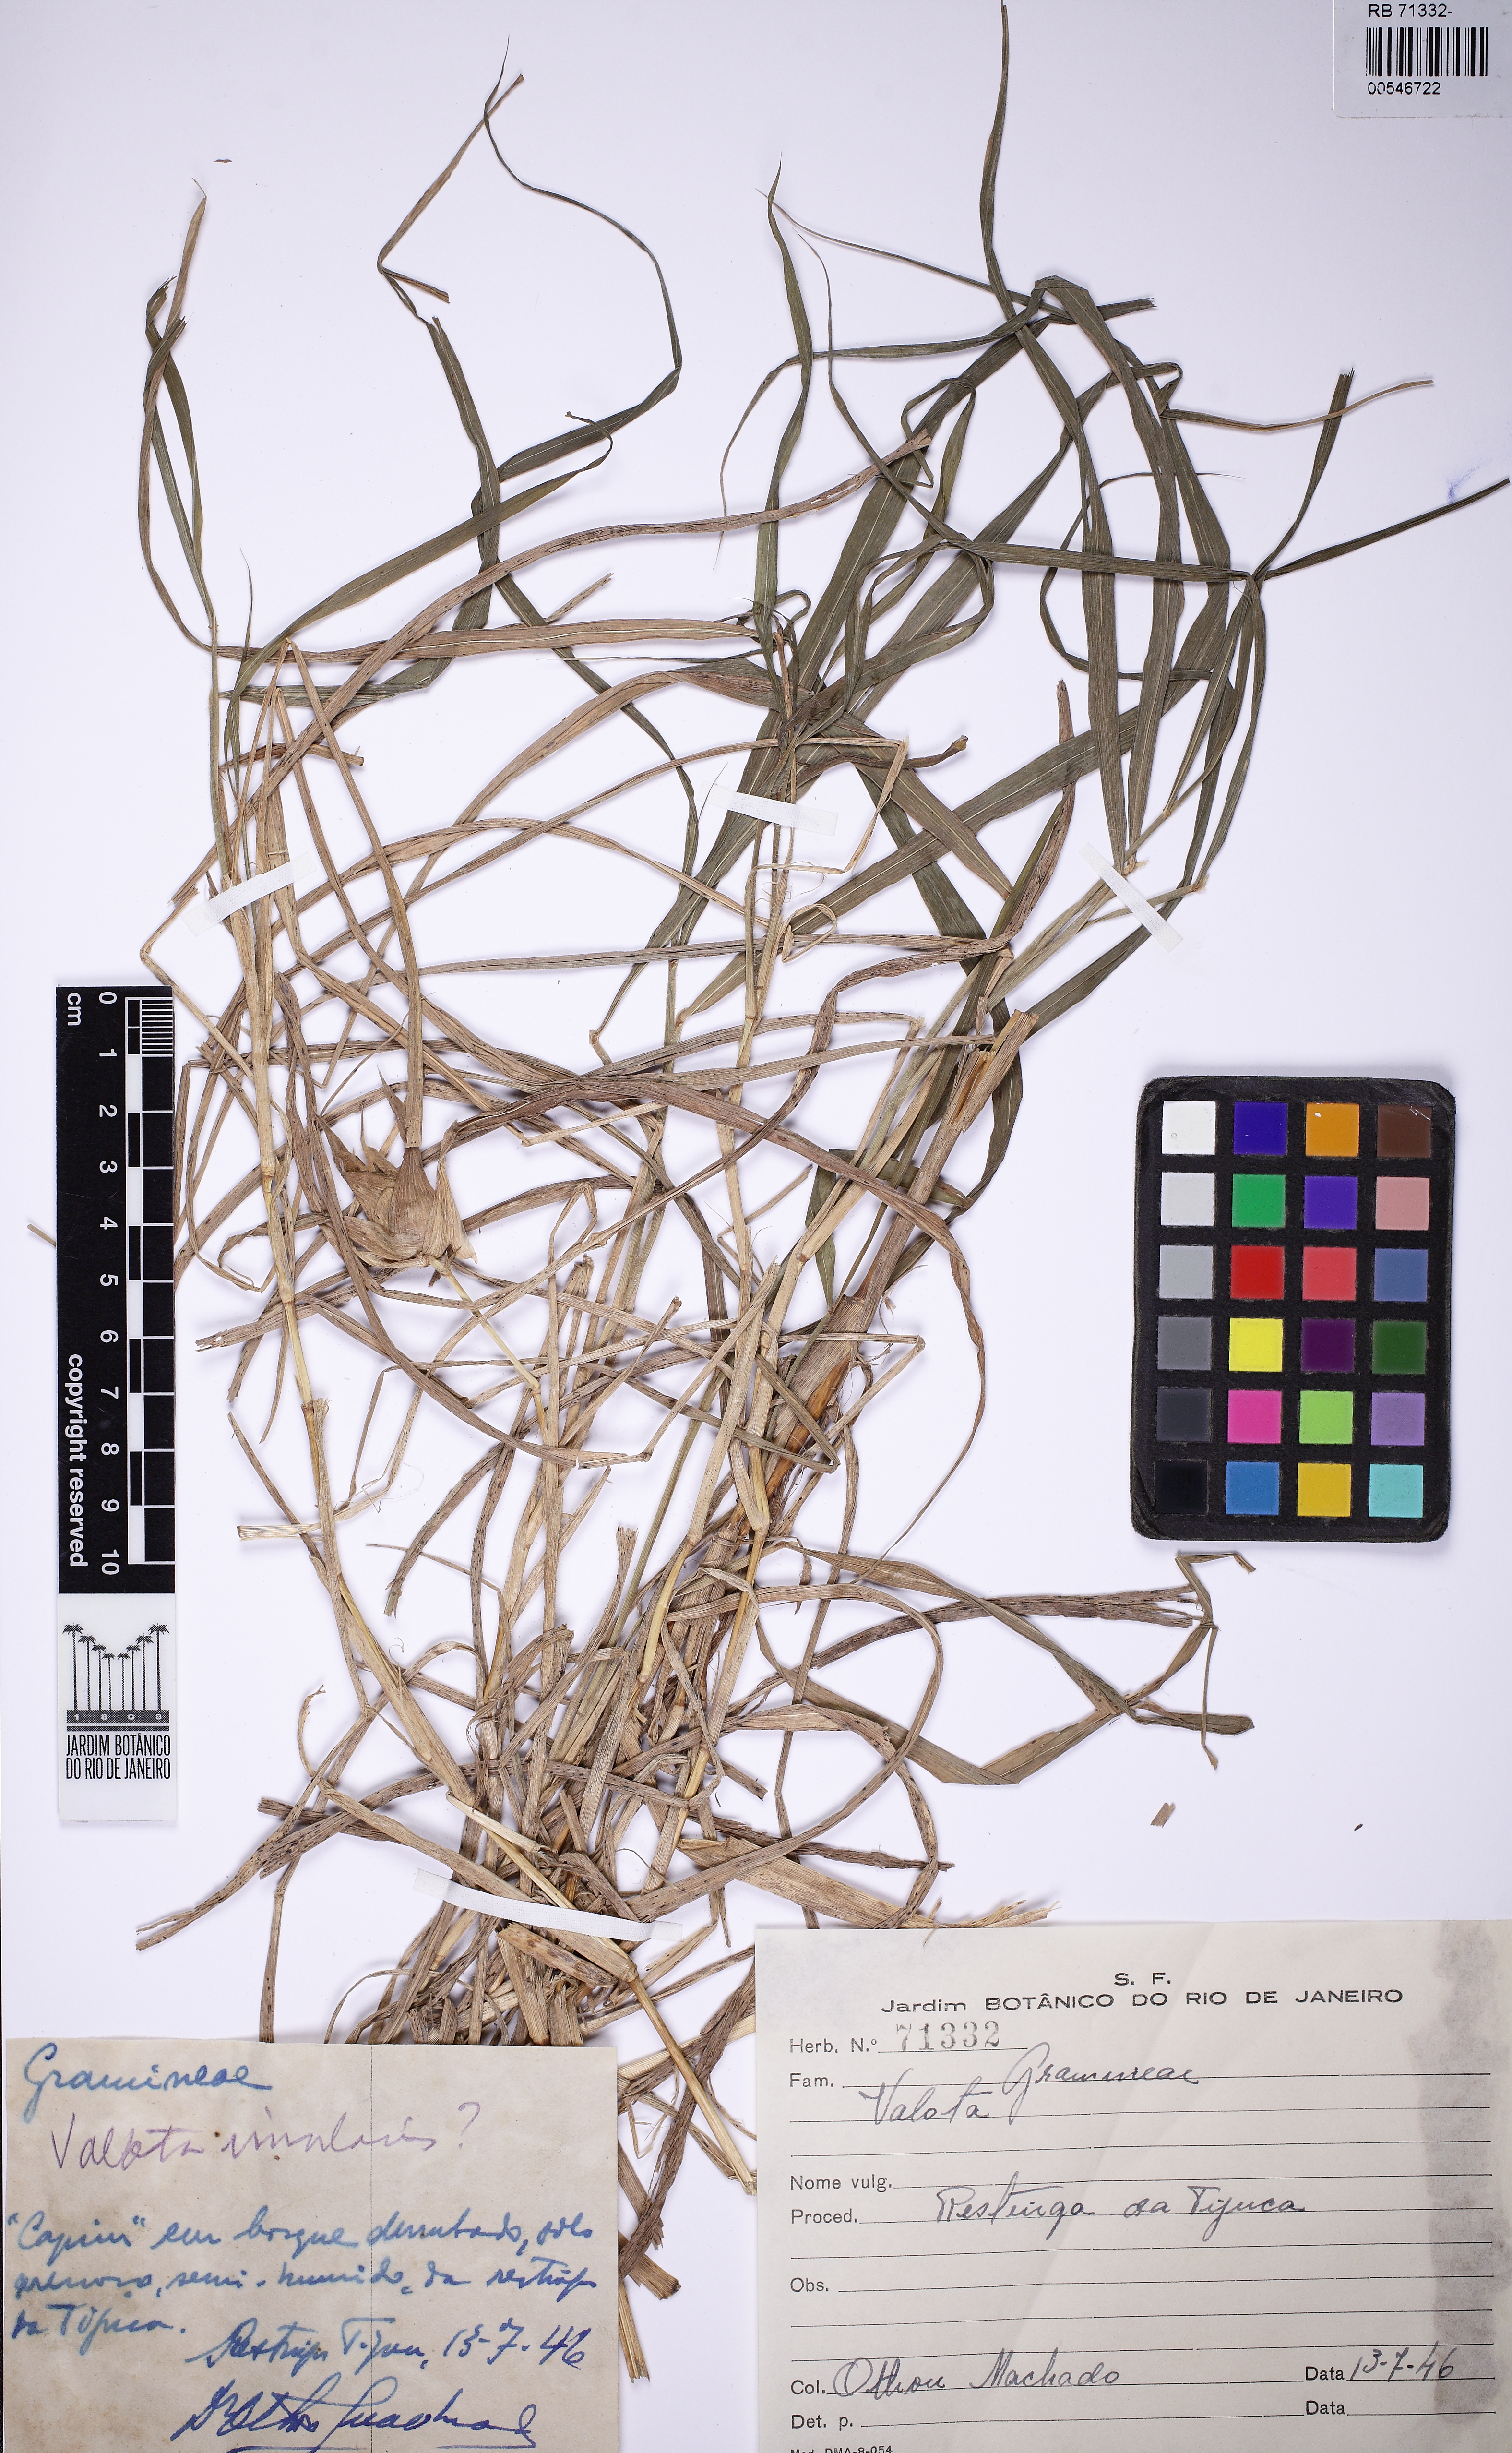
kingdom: Plantae
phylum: Tracheophyta
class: Liliopsida
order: Asparagales
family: Amaryllidaceae
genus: Valota
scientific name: Valota
